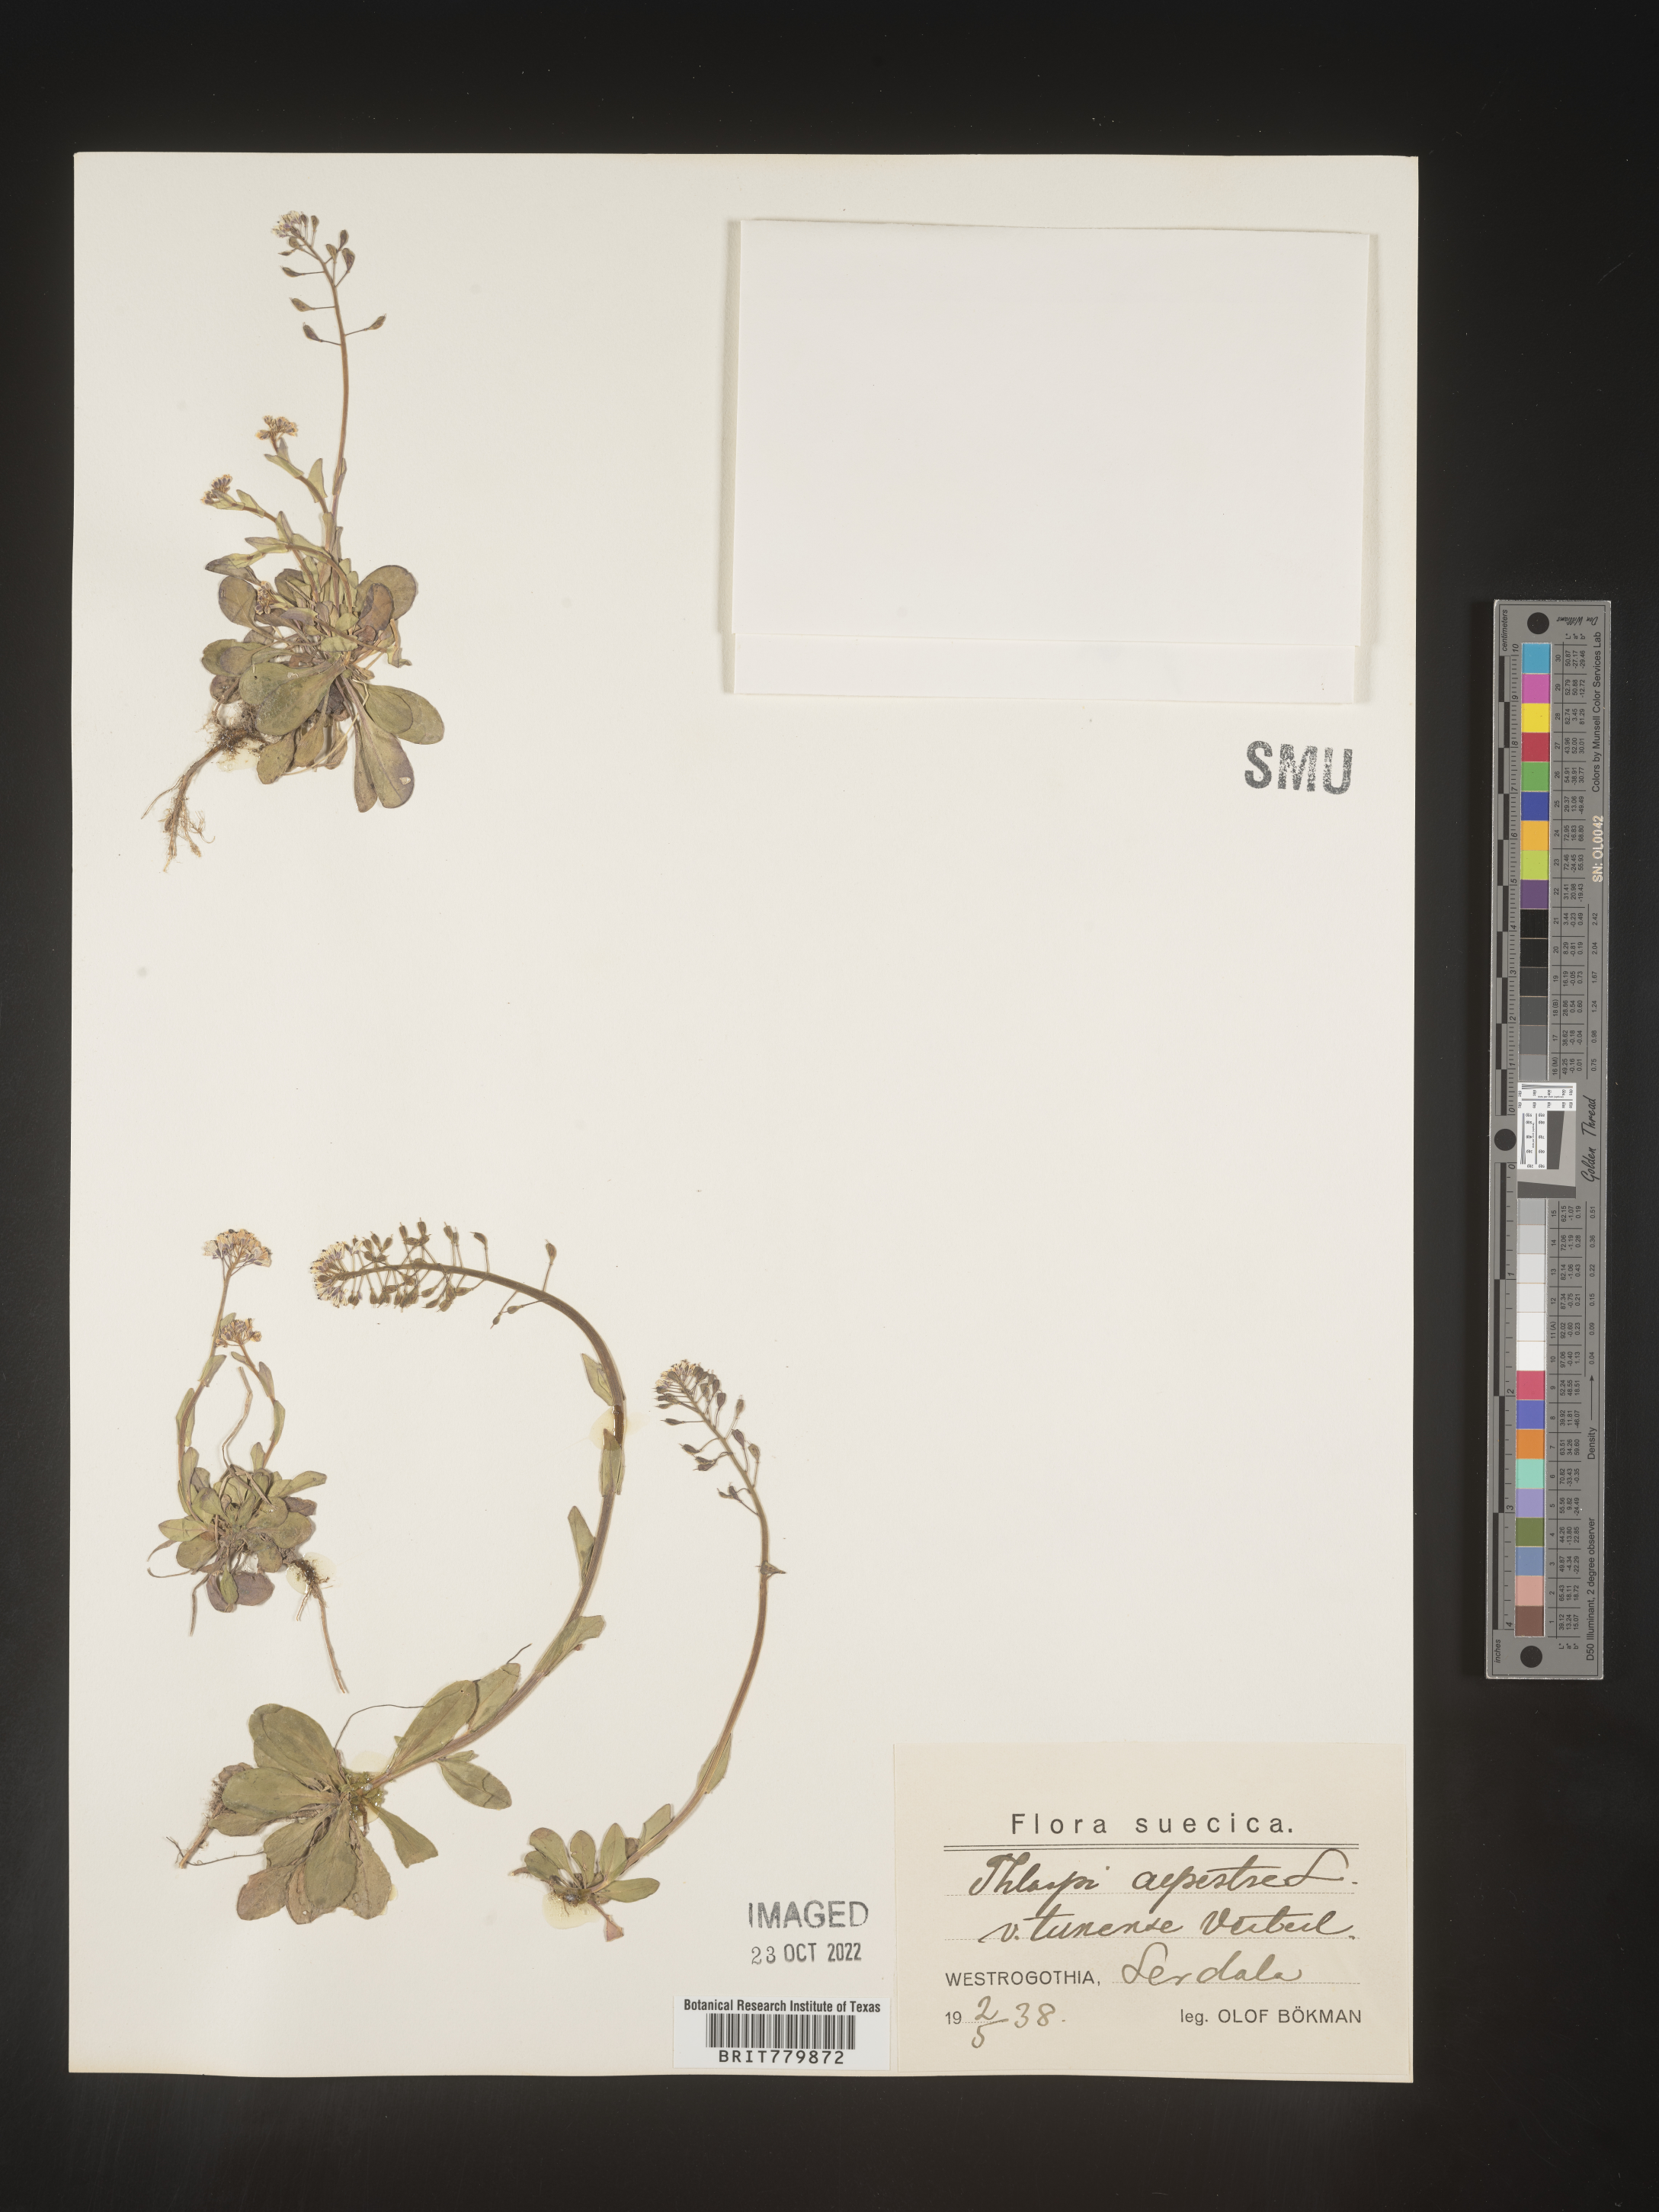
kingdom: Plantae
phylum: Tracheophyta
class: Magnoliopsida
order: Brassicales
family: Brassicaceae
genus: Thlaspi
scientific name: Thlaspi
